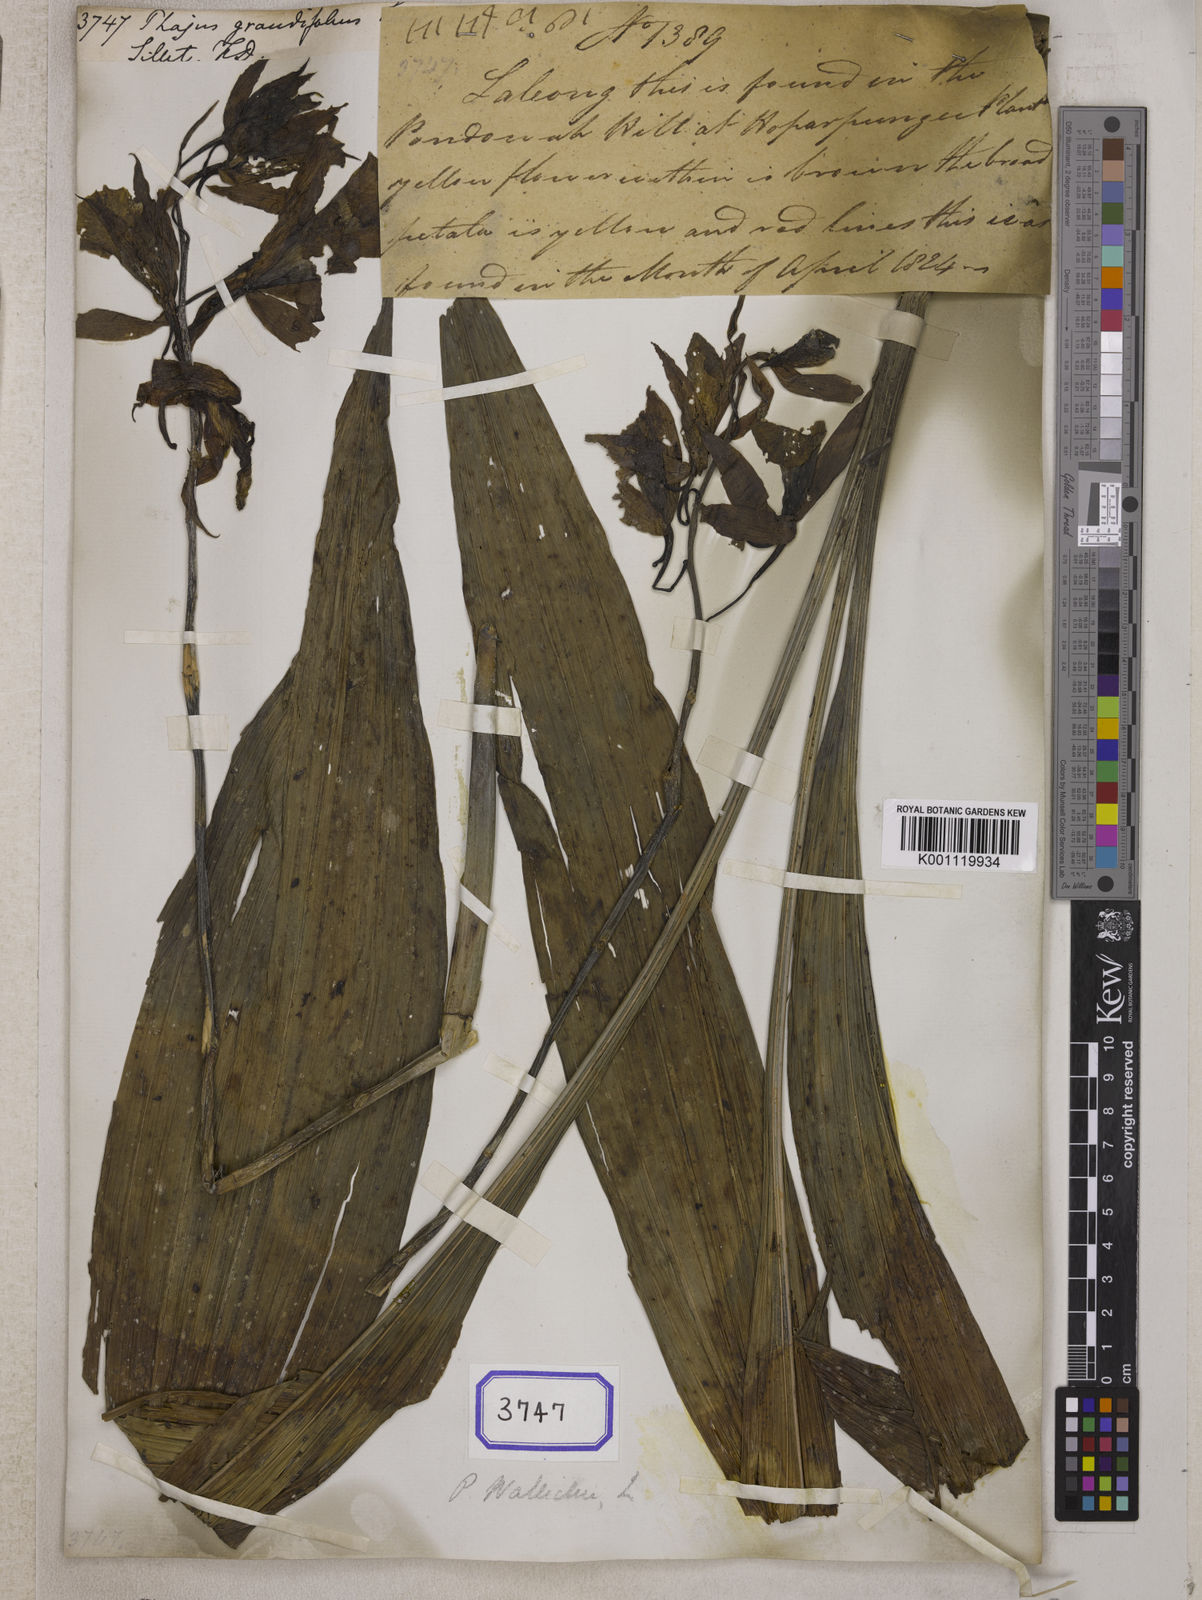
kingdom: Plantae
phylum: Tracheophyta
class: Liliopsida
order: Asparagales
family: Orchidaceae
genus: Calanthe
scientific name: Calanthe
